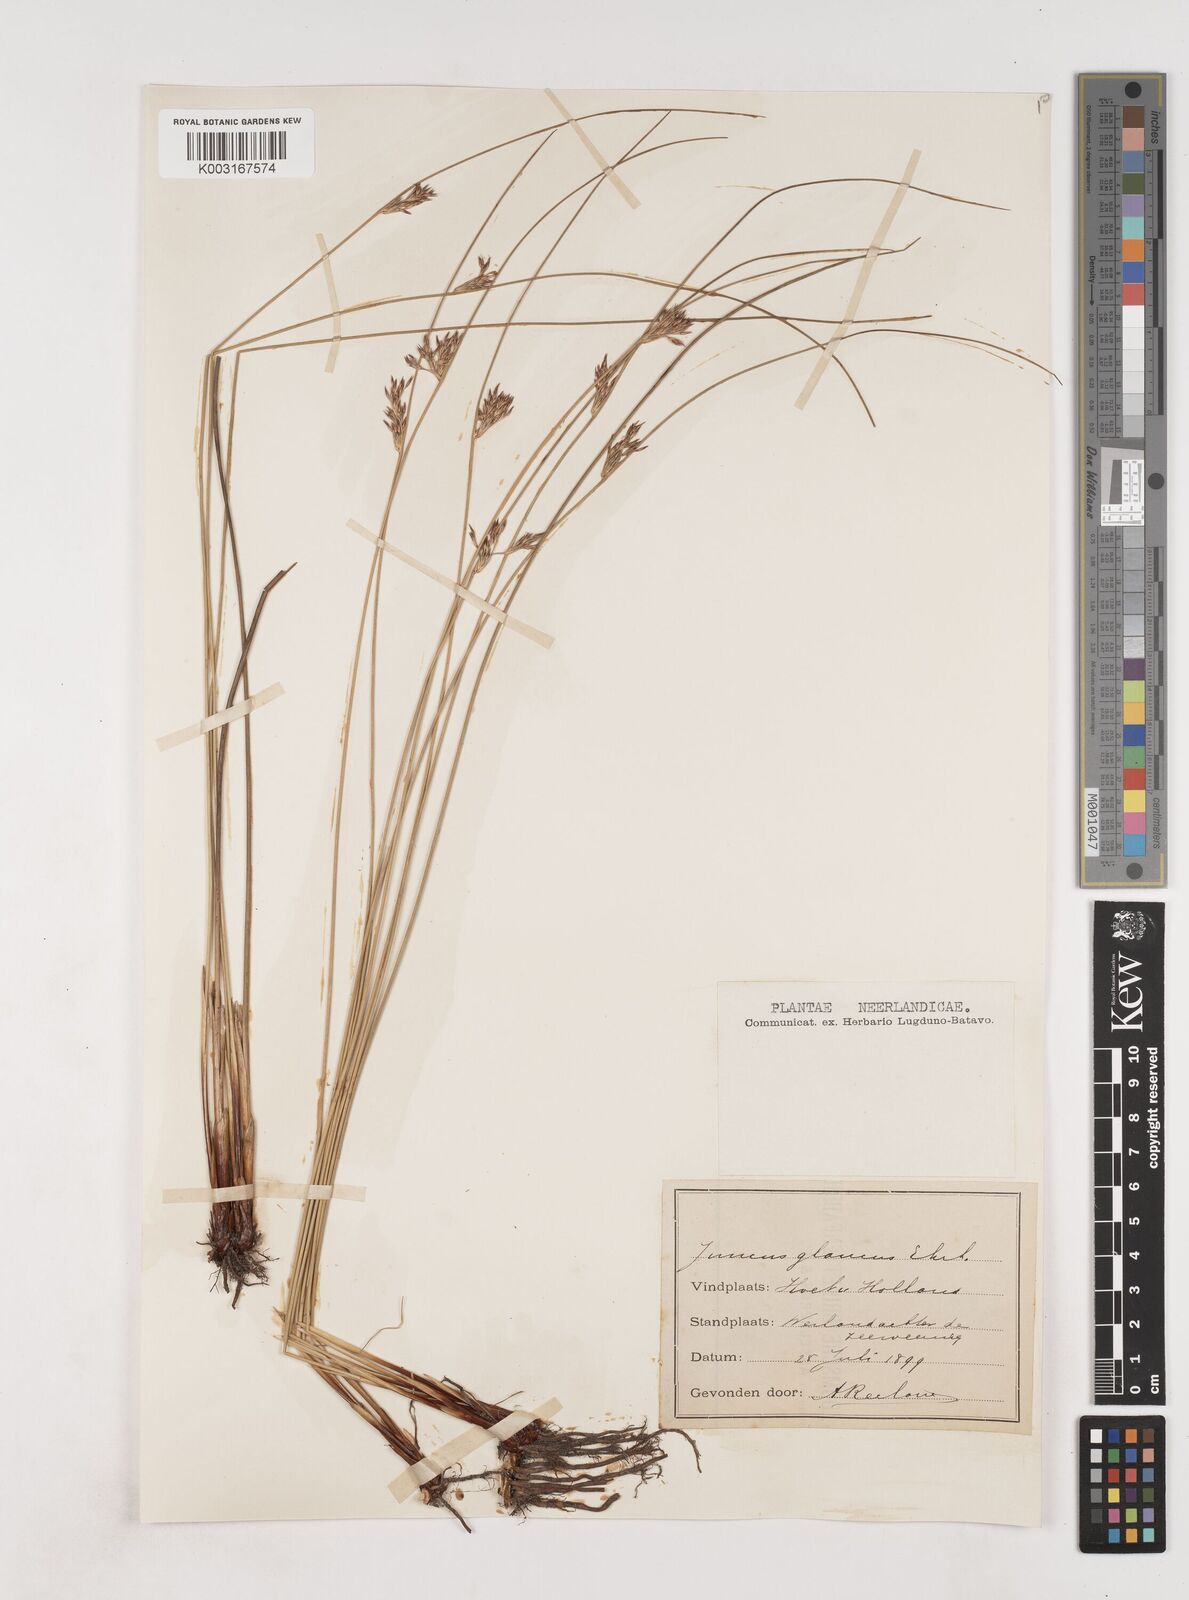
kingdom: Plantae
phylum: Tracheophyta
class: Liliopsida
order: Poales
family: Juncaceae
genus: Juncus
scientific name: Juncus inflexus
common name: Hard rush
